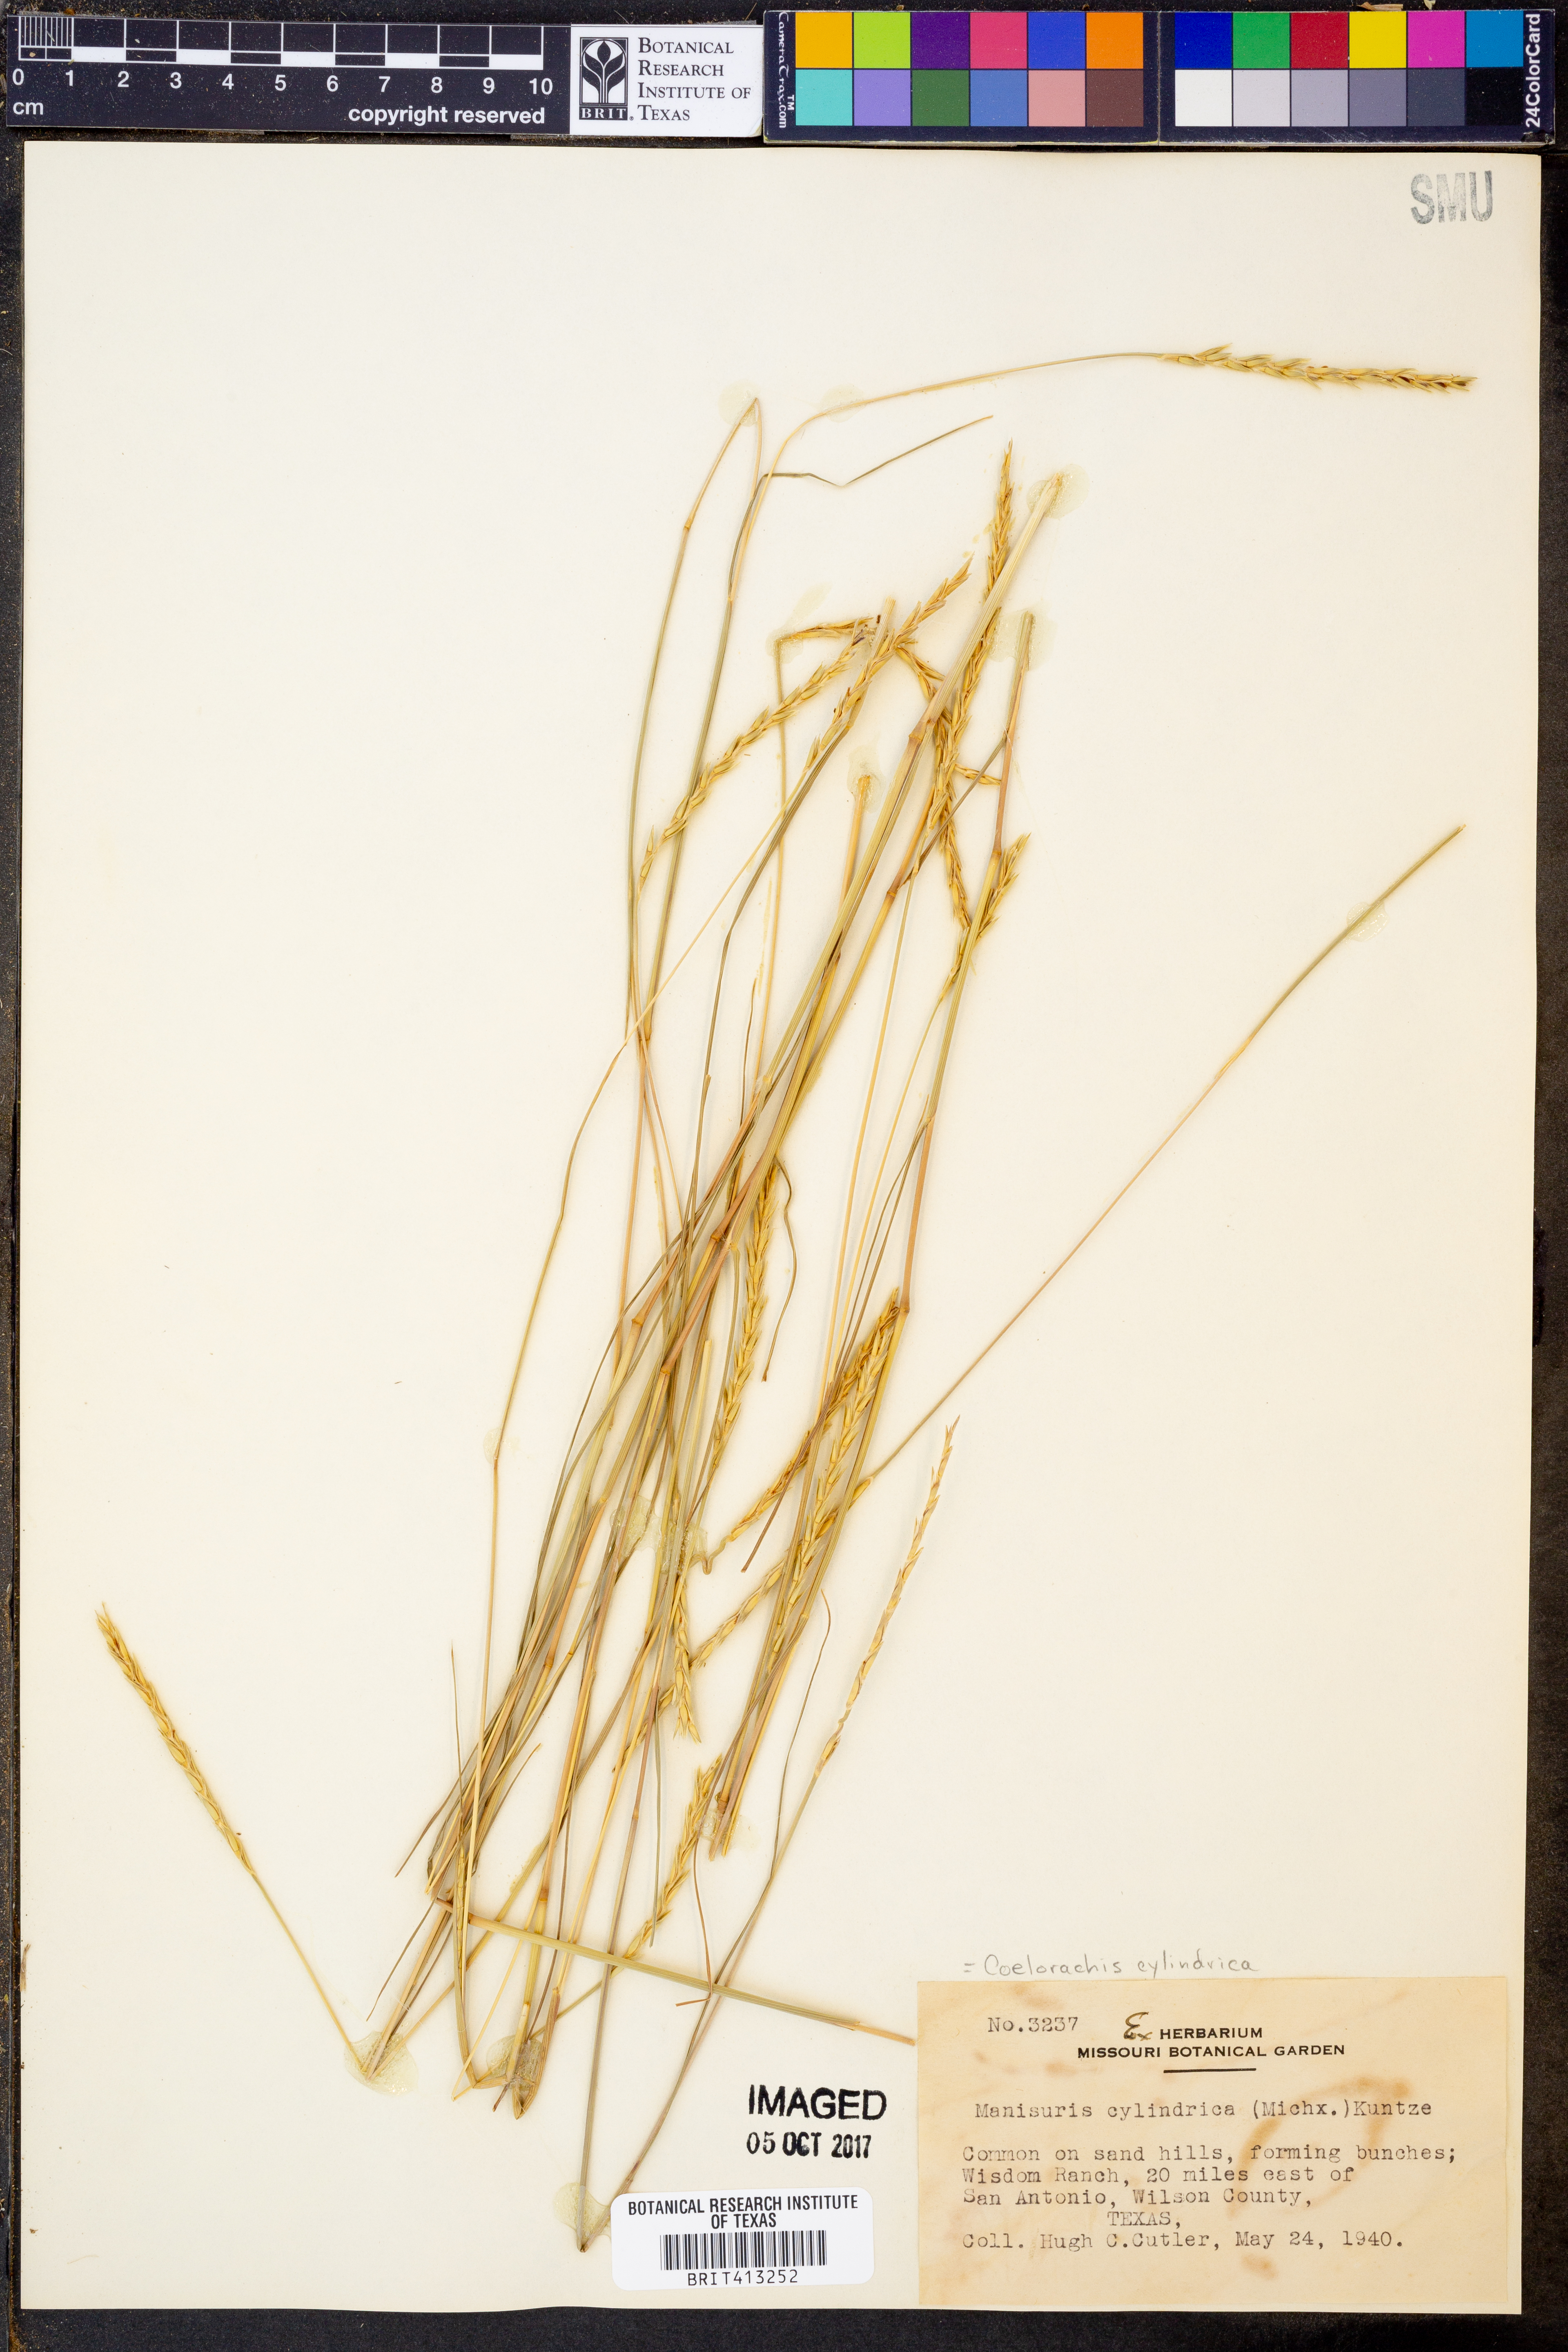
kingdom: Plantae
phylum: Tracheophyta
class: Liliopsida
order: Poales
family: Poaceae
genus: Rottboellia
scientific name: Rottboellia campestris
